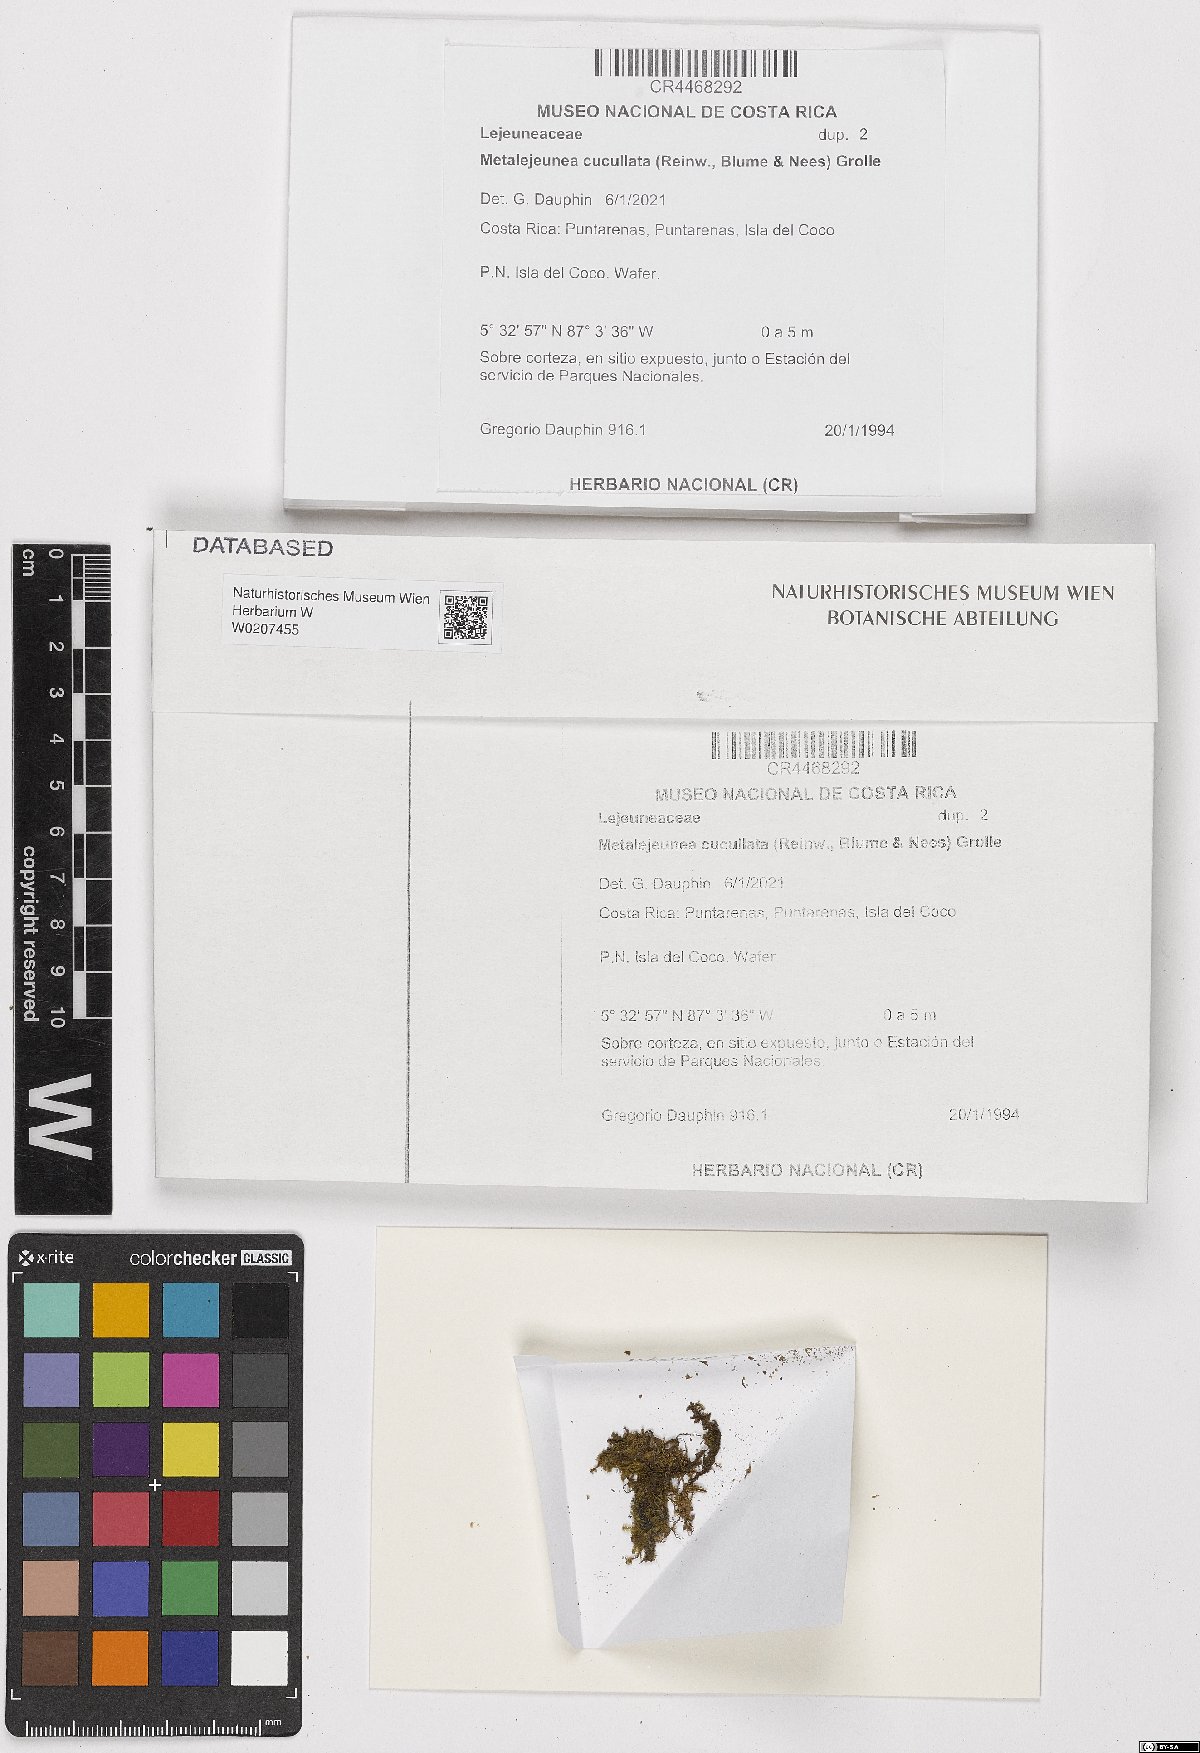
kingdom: Plantae
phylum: Marchantiophyta
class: Jungermanniopsida
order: Porellales
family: Lejeuneaceae
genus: Metalejeunea
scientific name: Metalejeunea cucullata
